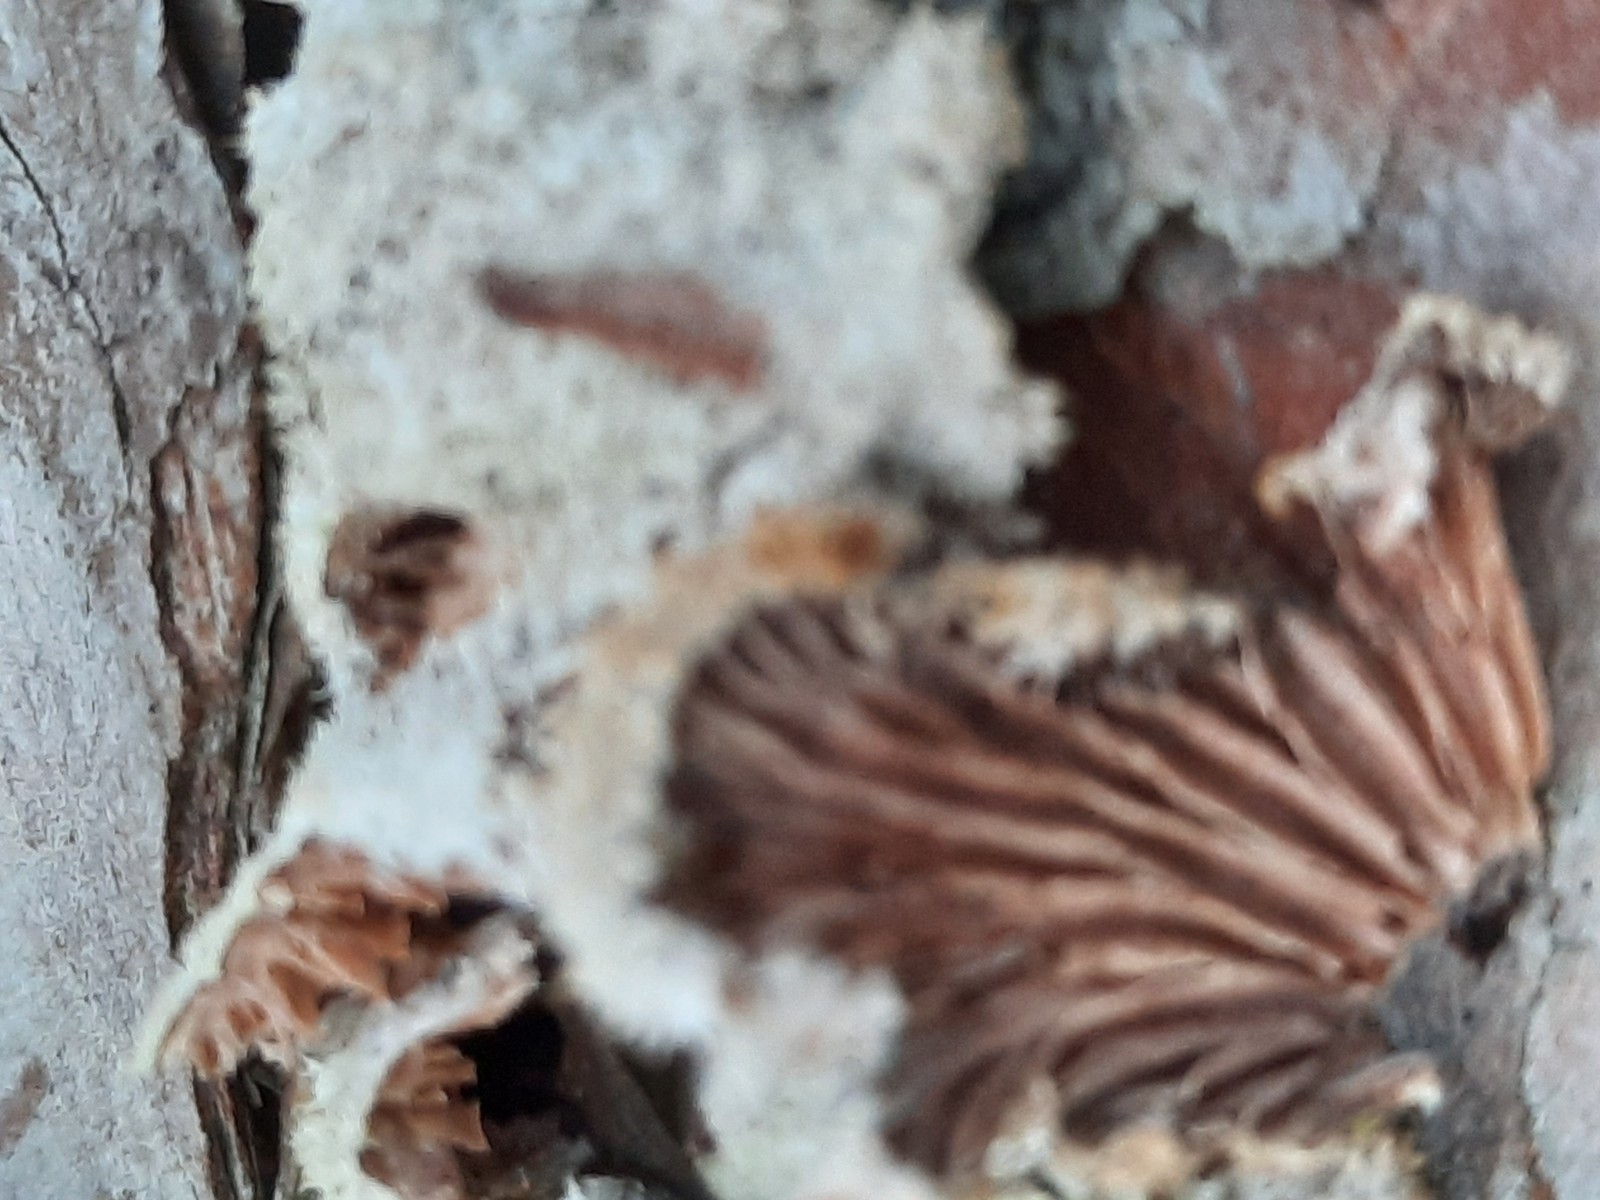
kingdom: Fungi
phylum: Basidiomycota
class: Agaricomycetes
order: Agaricales
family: Schizophyllaceae
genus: Schizophyllum
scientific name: Schizophyllum commune
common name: kløvblad
